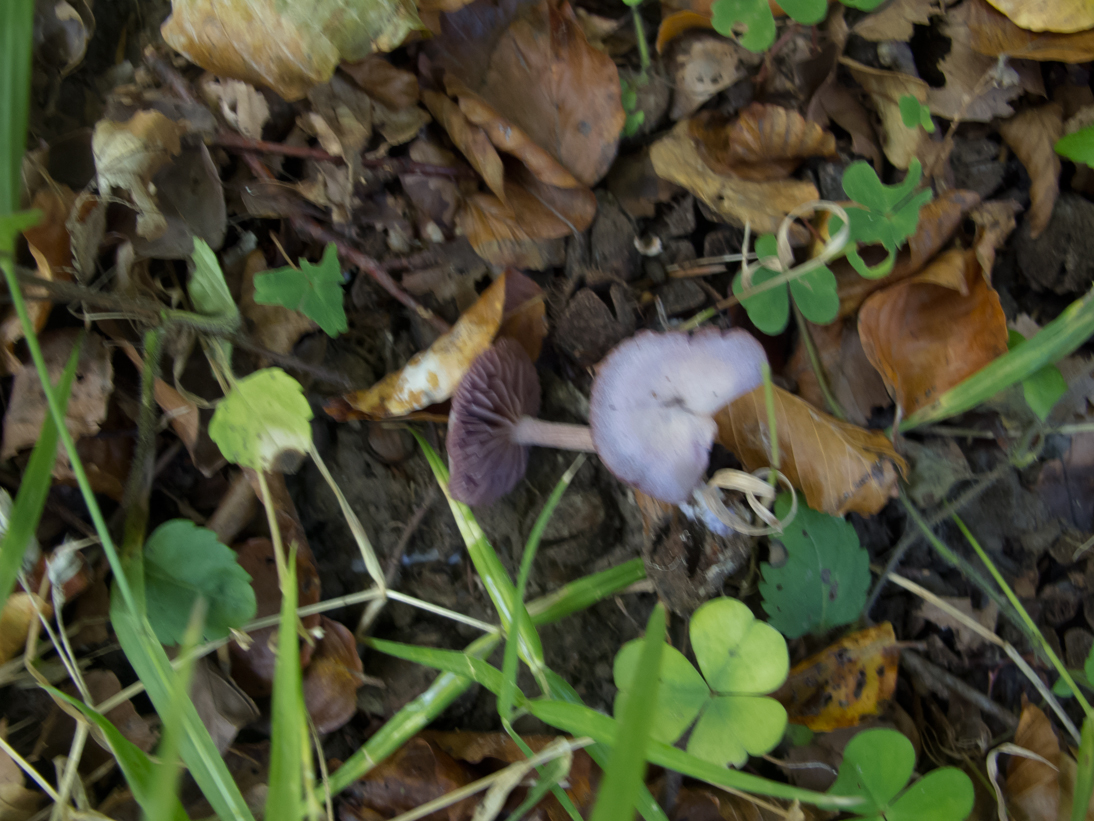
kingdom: Fungi
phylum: Basidiomycota
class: Agaricomycetes
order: Agaricales
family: Hydnangiaceae
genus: Laccaria
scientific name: Laccaria amethystina
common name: violet ametysthat
